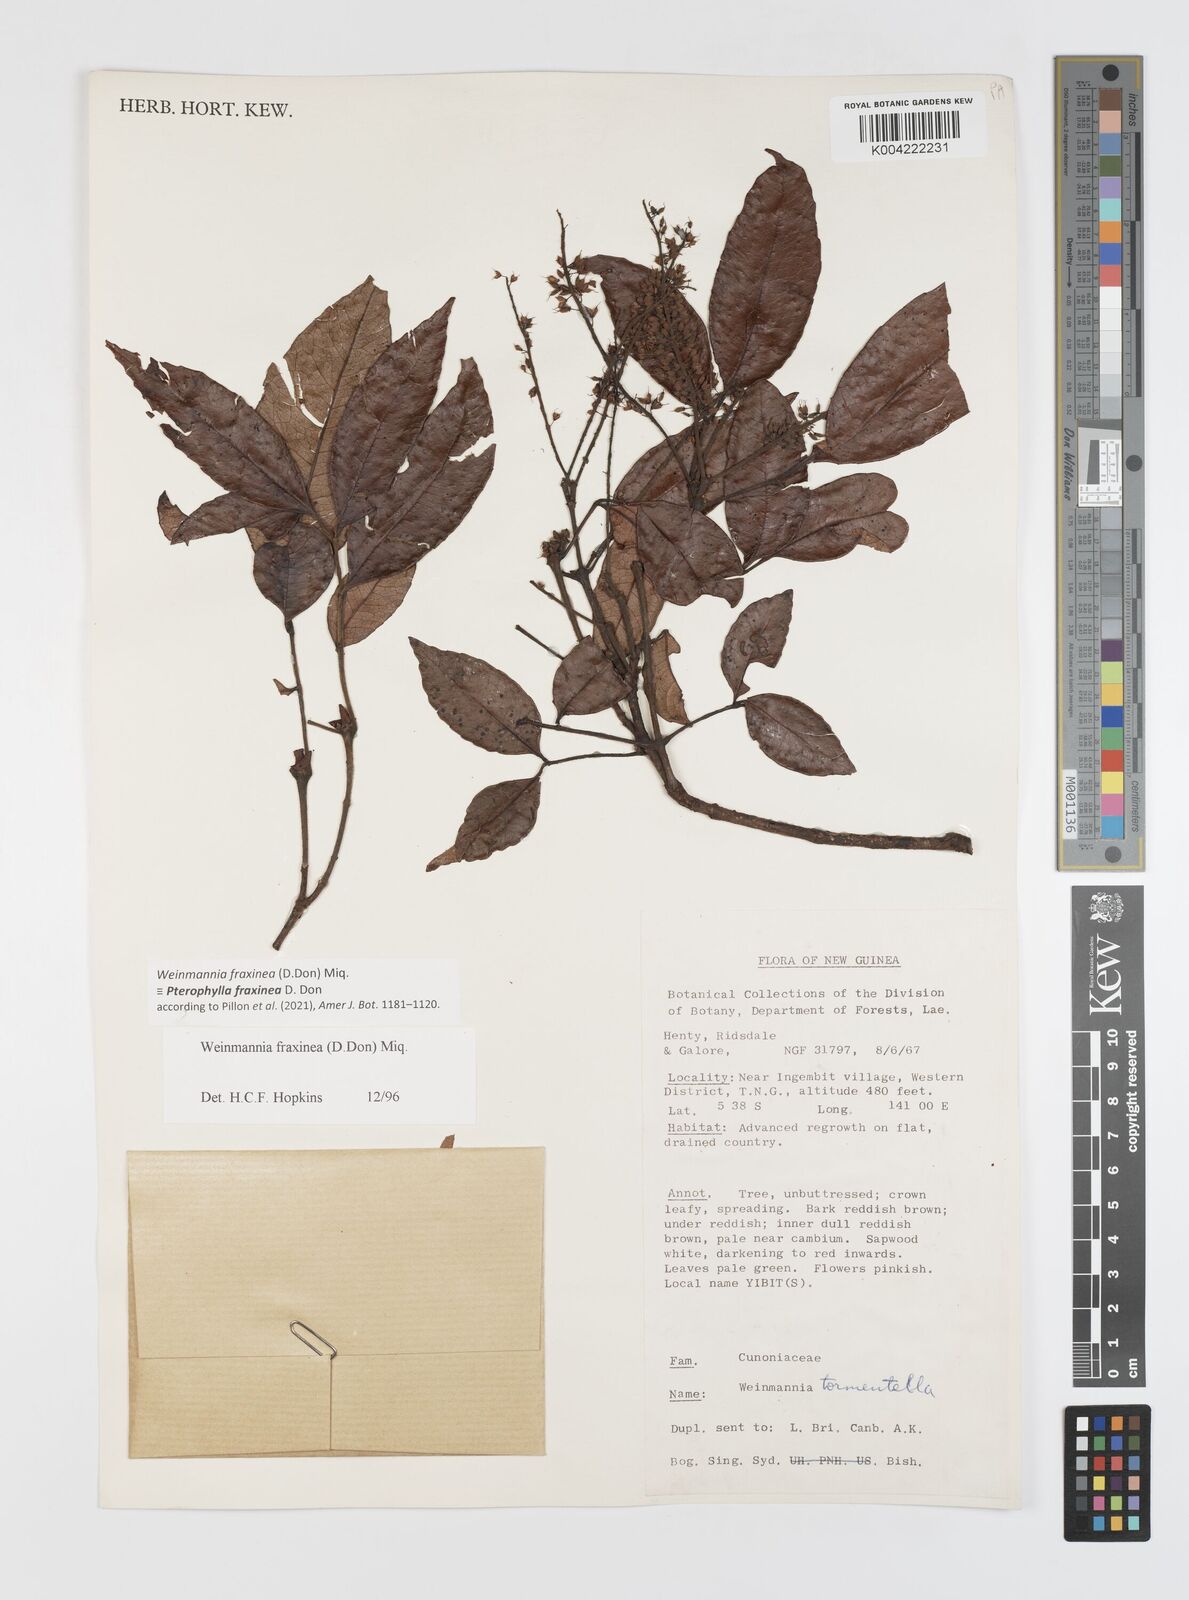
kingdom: Plantae
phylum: Tracheophyta
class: Magnoliopsida
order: Oxalidales
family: Cunoniaceae
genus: Pterophylla
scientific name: Pterophylla fraxinea
